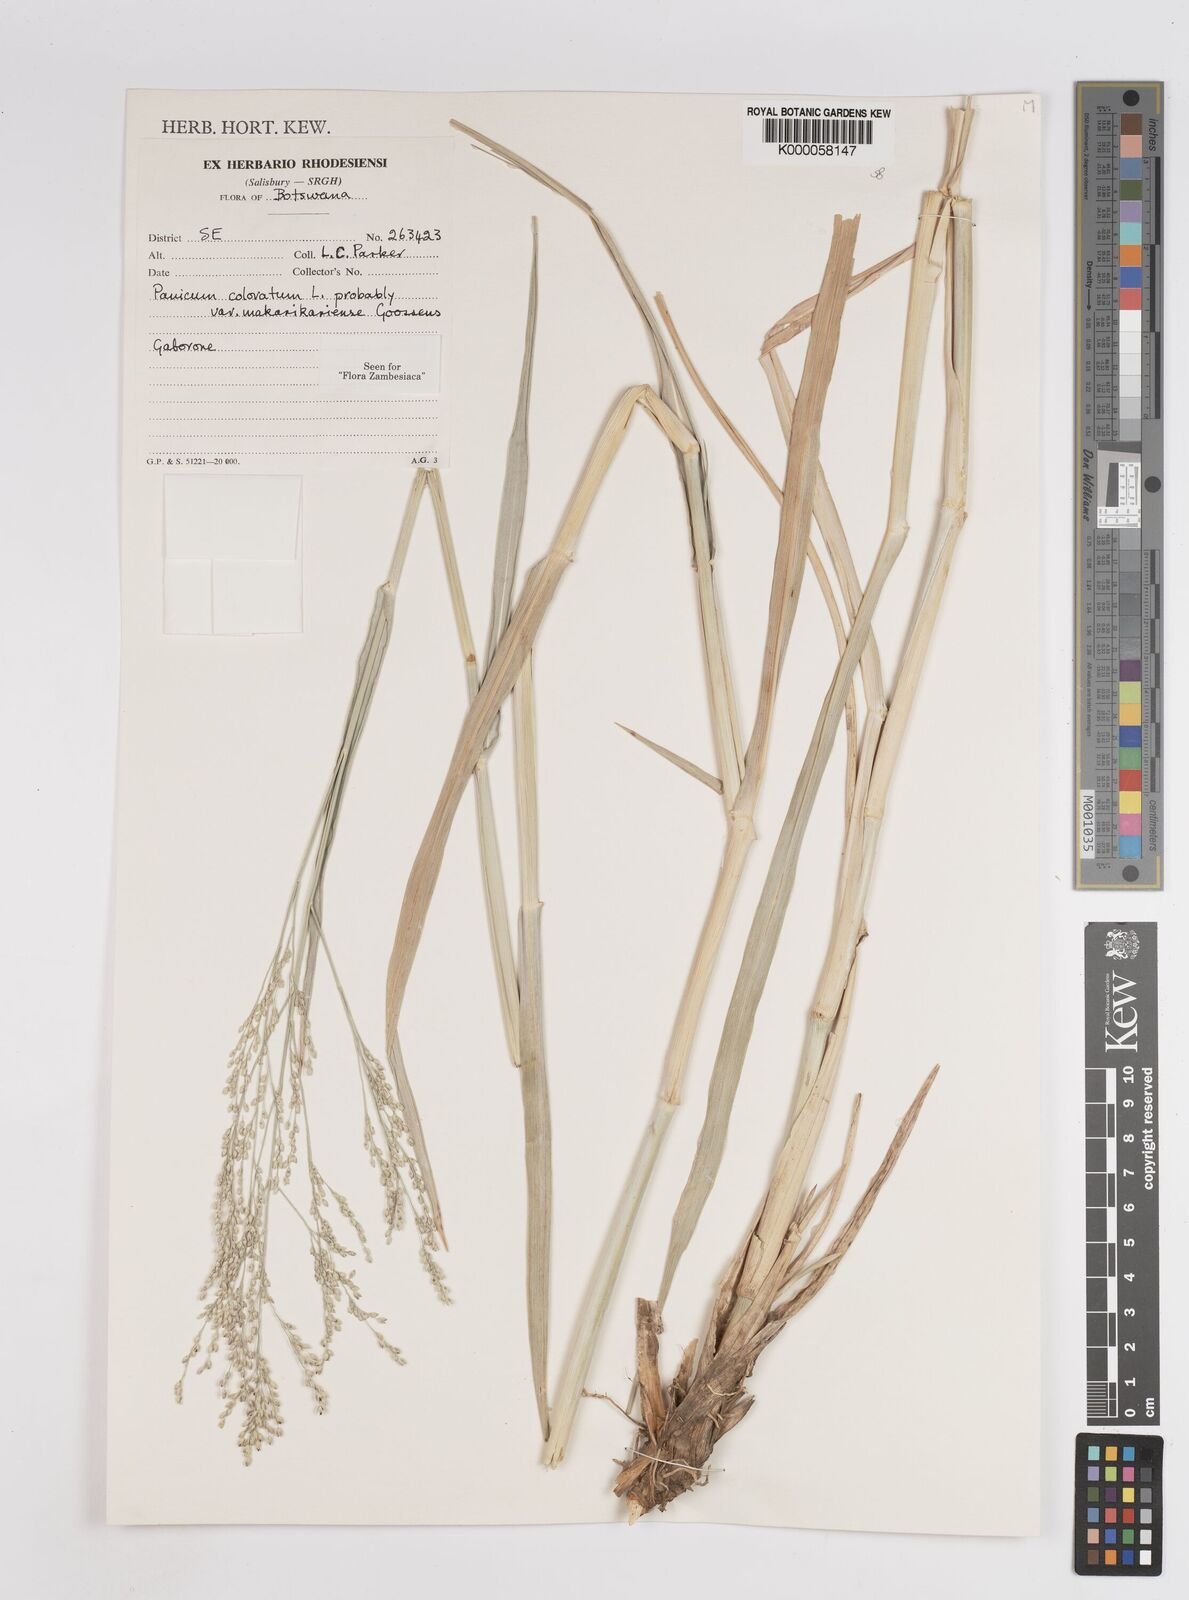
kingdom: Plantae
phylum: Tracheophyta
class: Liliopsida
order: Poales
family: Poaceae
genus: Panicum
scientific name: Panicum coloratum
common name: Kleingrass
